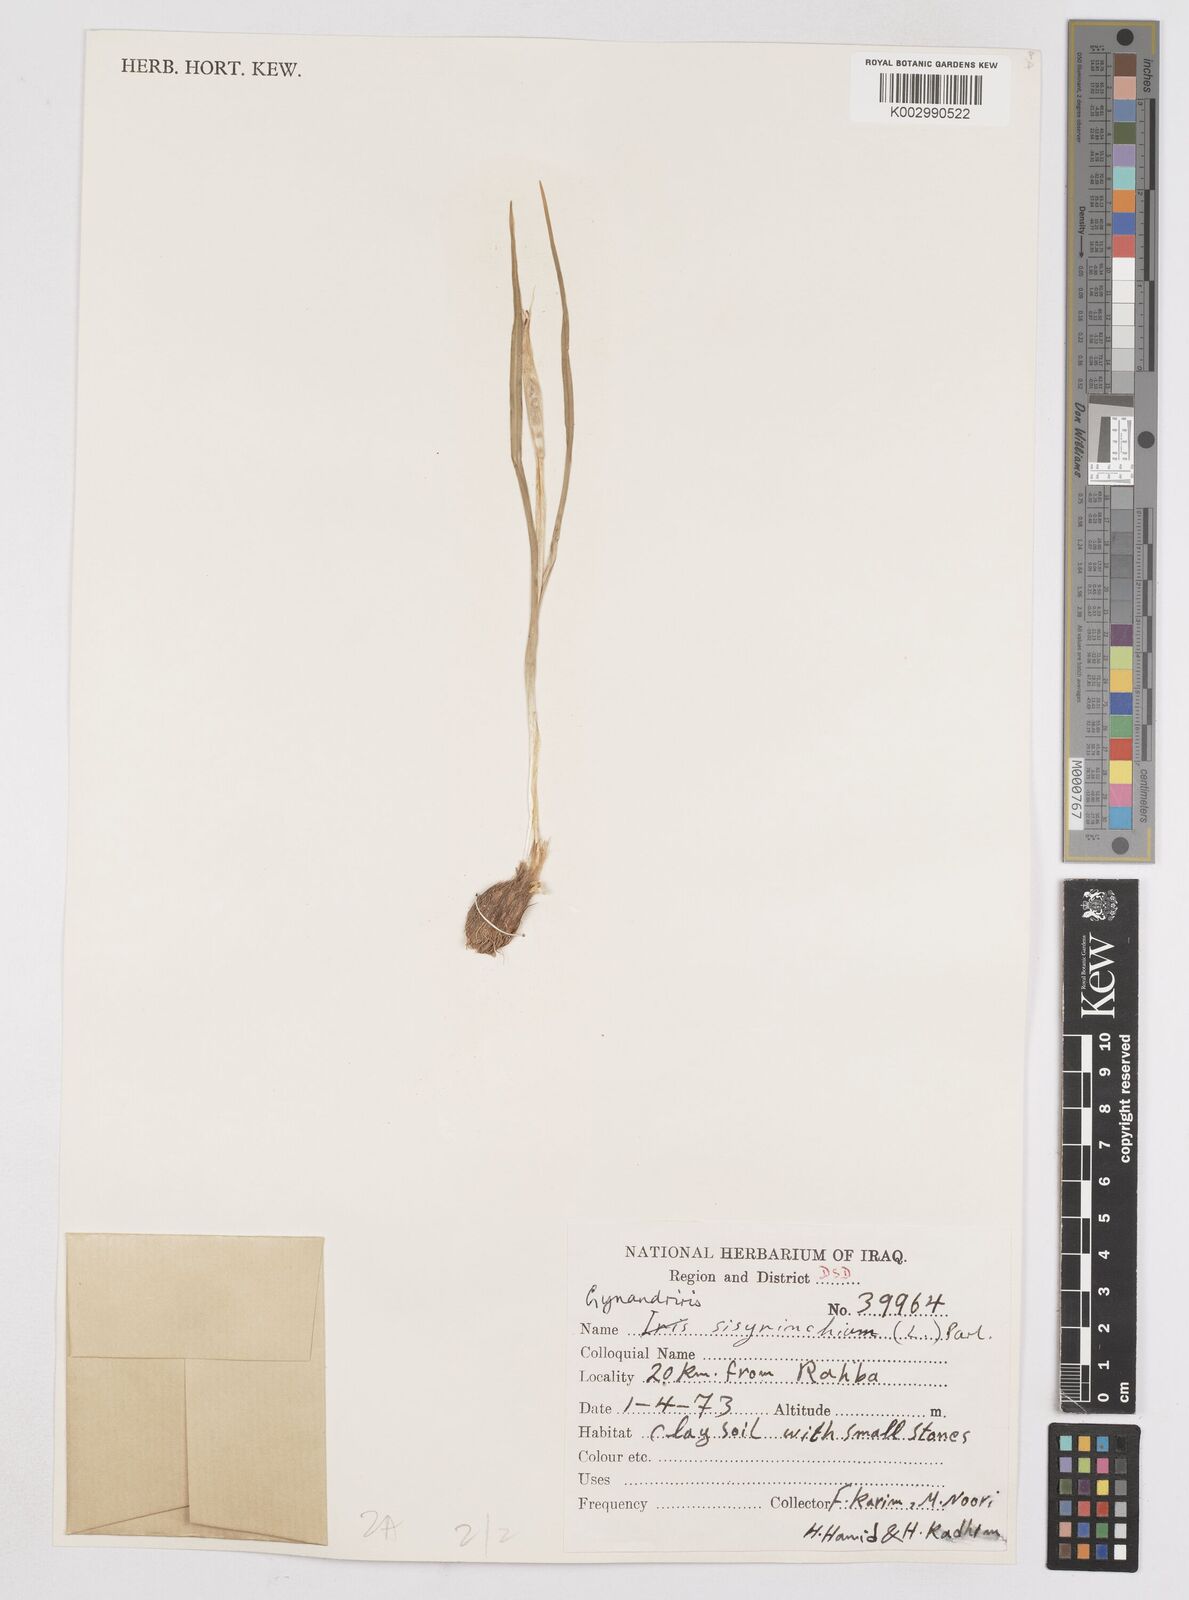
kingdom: Plantae
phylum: Tracheophyta
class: Liliopsida
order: Asparagales
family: Iridaceae
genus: Moraea
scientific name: Moraea sisyrinchium
